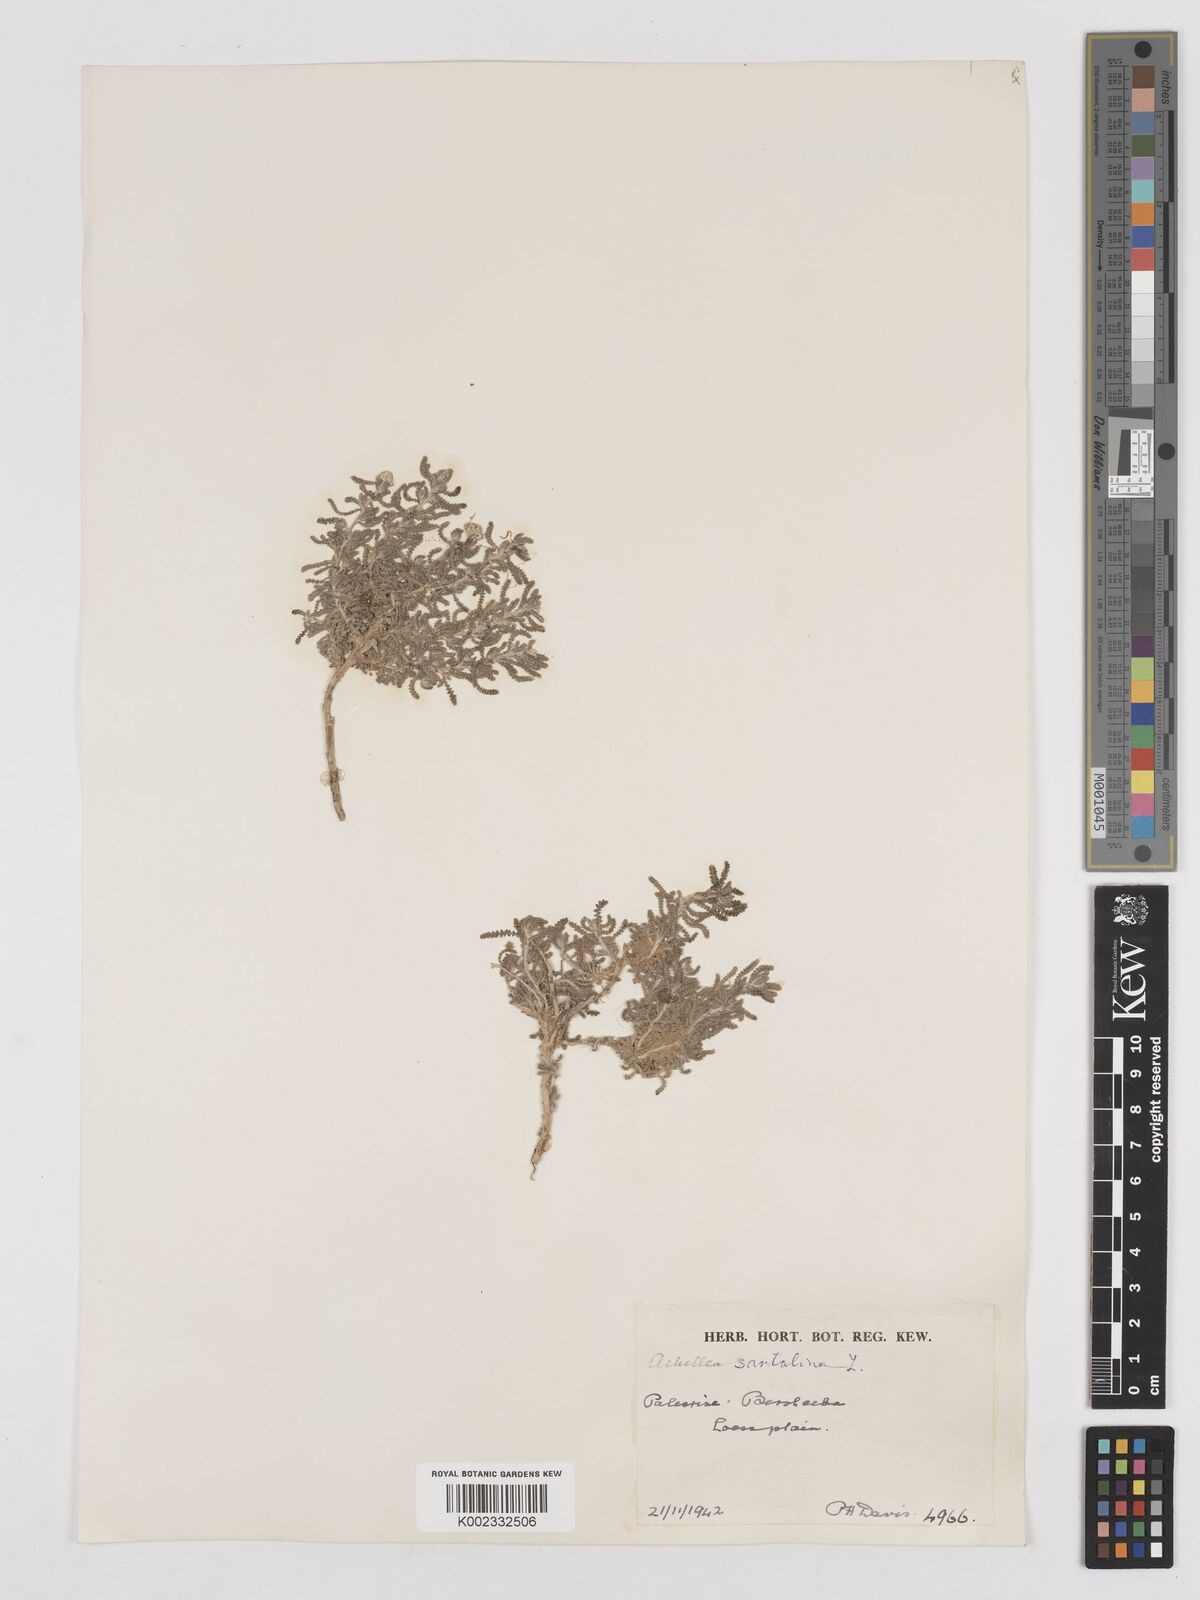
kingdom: Plantae
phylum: Tracheophyta
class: Magnoliopsida
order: Asterales
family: Asteraceae
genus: Achillea
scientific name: Achillea tenuifolia
